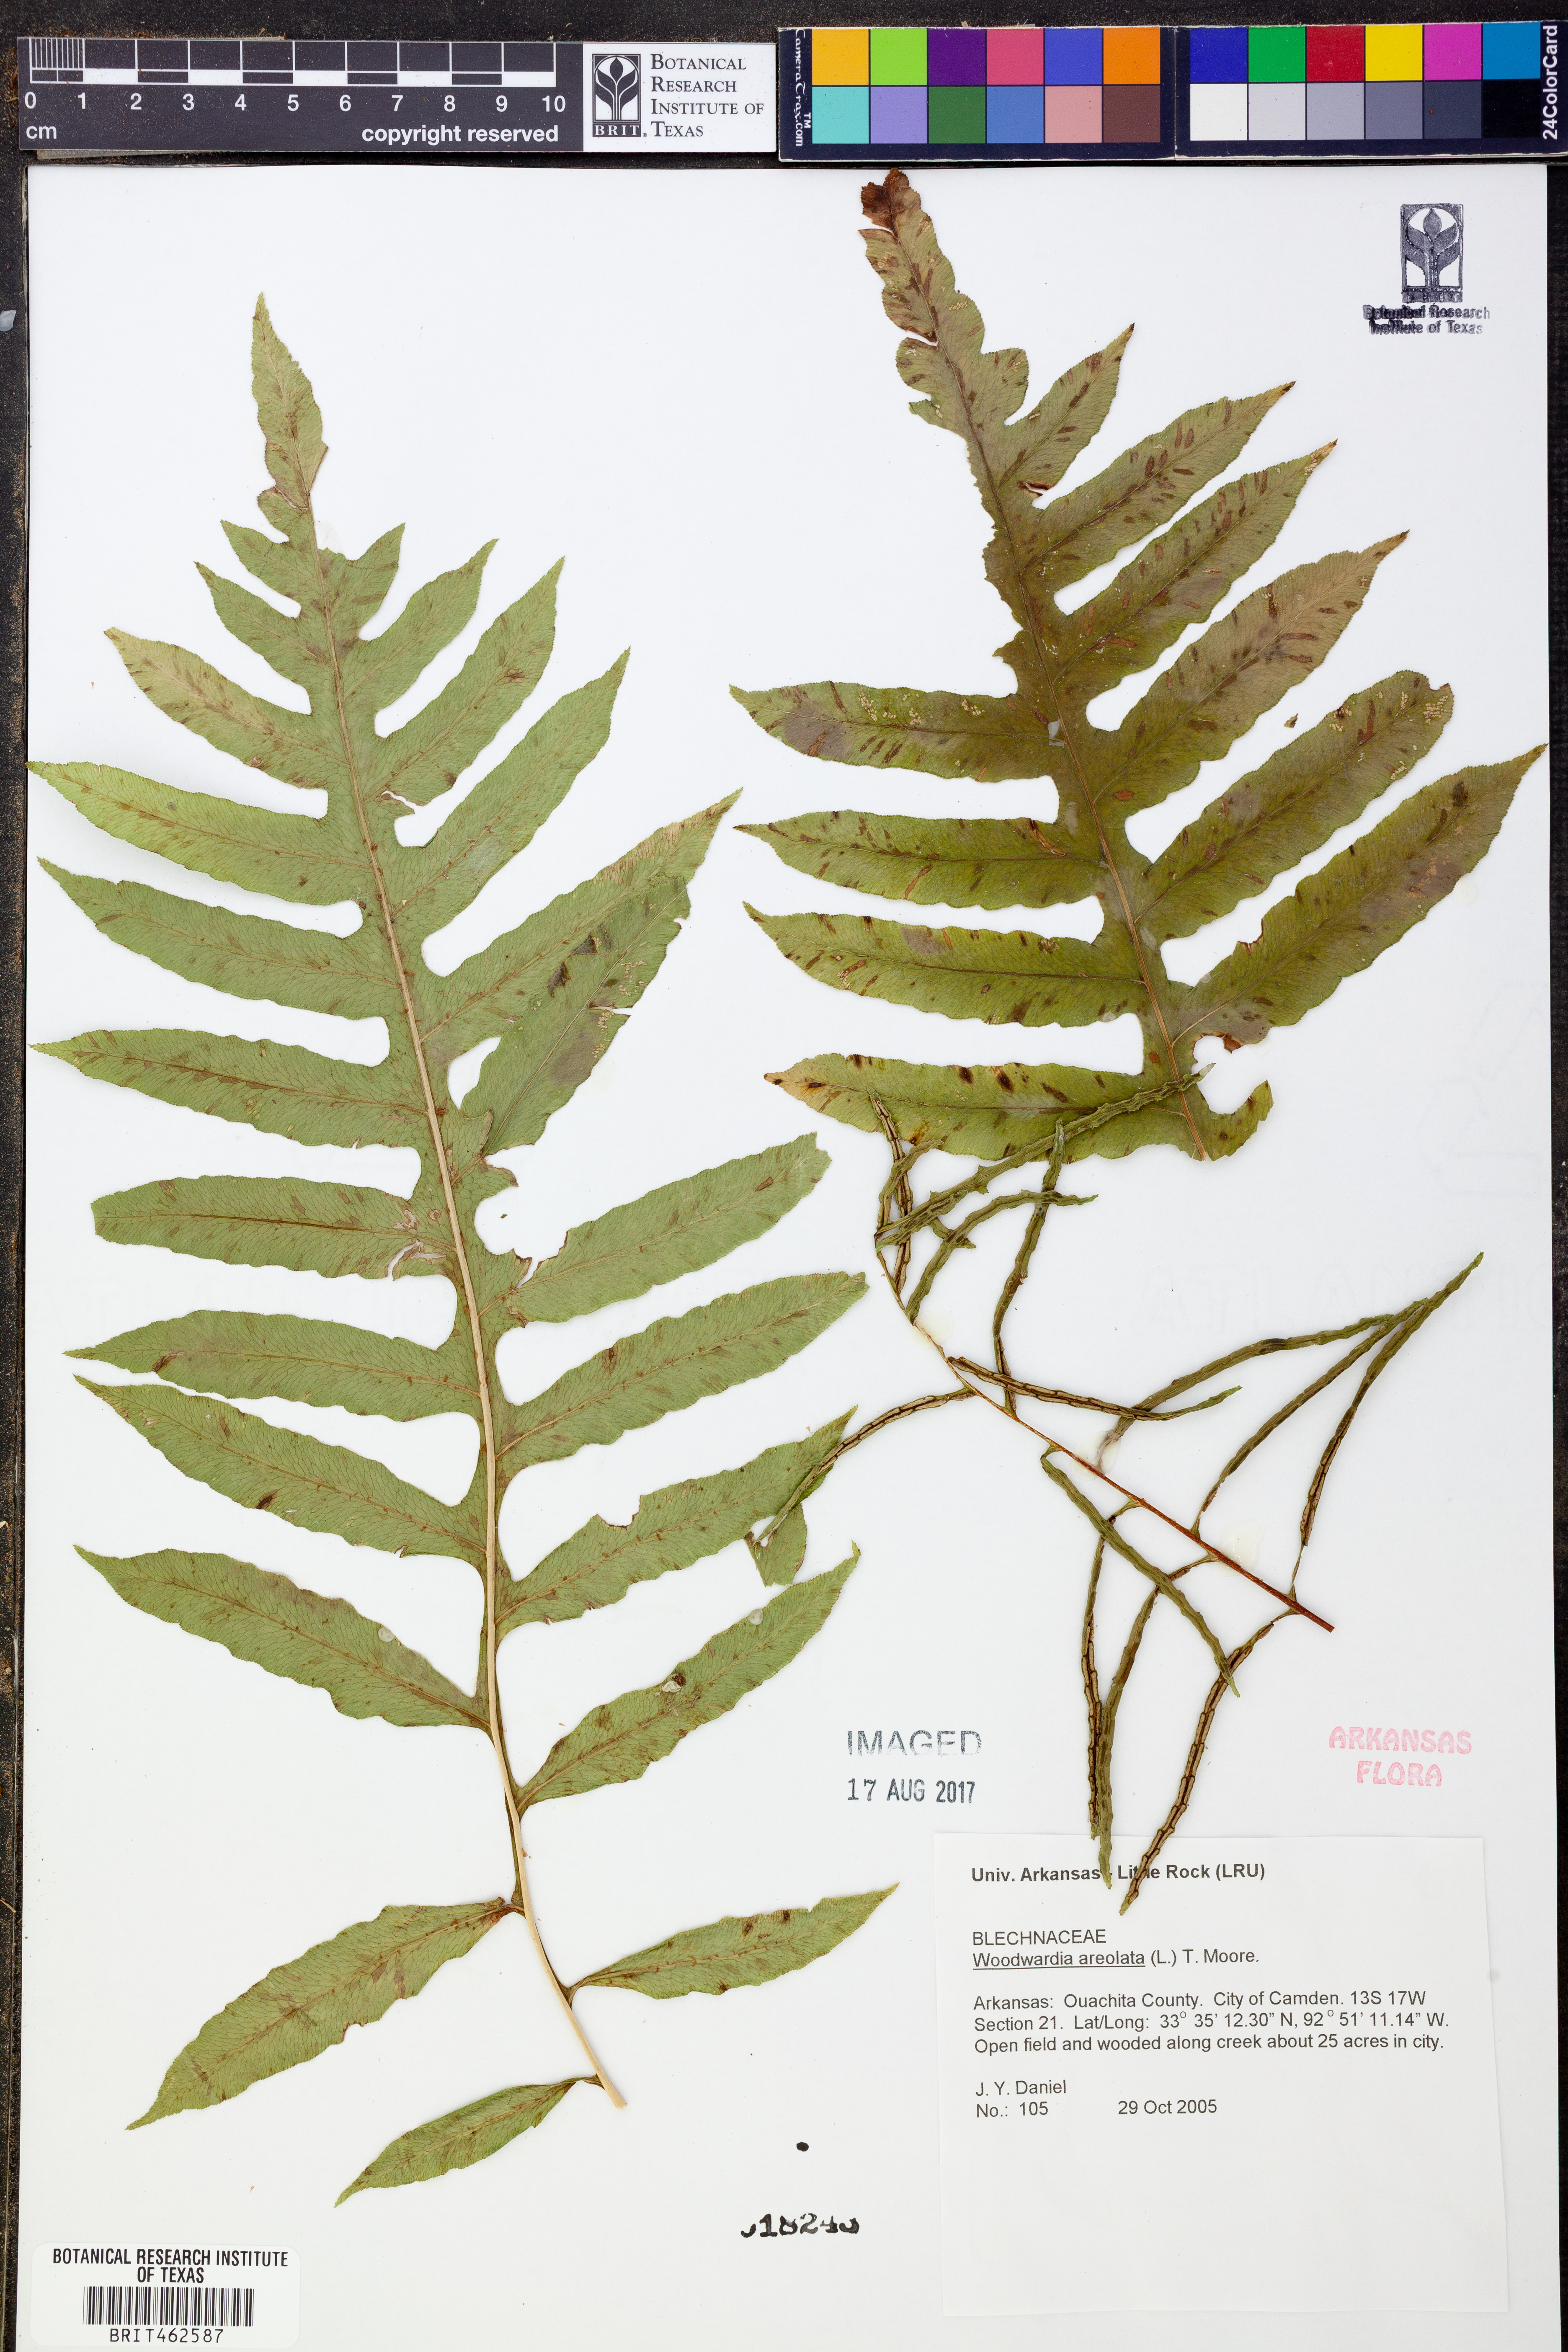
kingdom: Plantae
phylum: Tracheophyta
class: Polypodiopsida
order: Polypodiales
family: Blechnaceae
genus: Lorinseria
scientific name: Lorinseria areolata
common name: Dwarf chain fern
